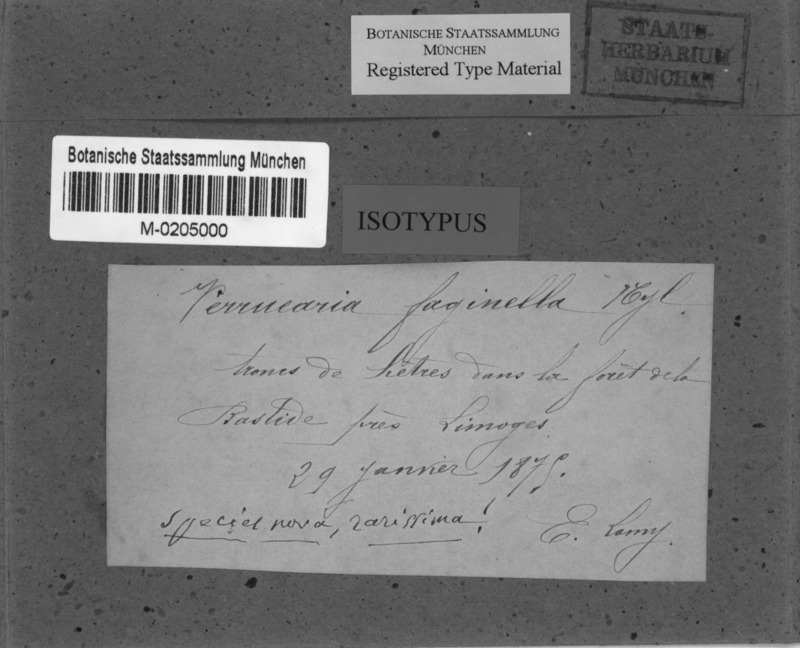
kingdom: Fungi
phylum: Ascomycota
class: Dothideomycetes
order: Pleosporales
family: Naetrocymbaceae
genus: Leptorhaphis
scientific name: Leptorhaphis epidermidis
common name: Birchbark dot lichen
